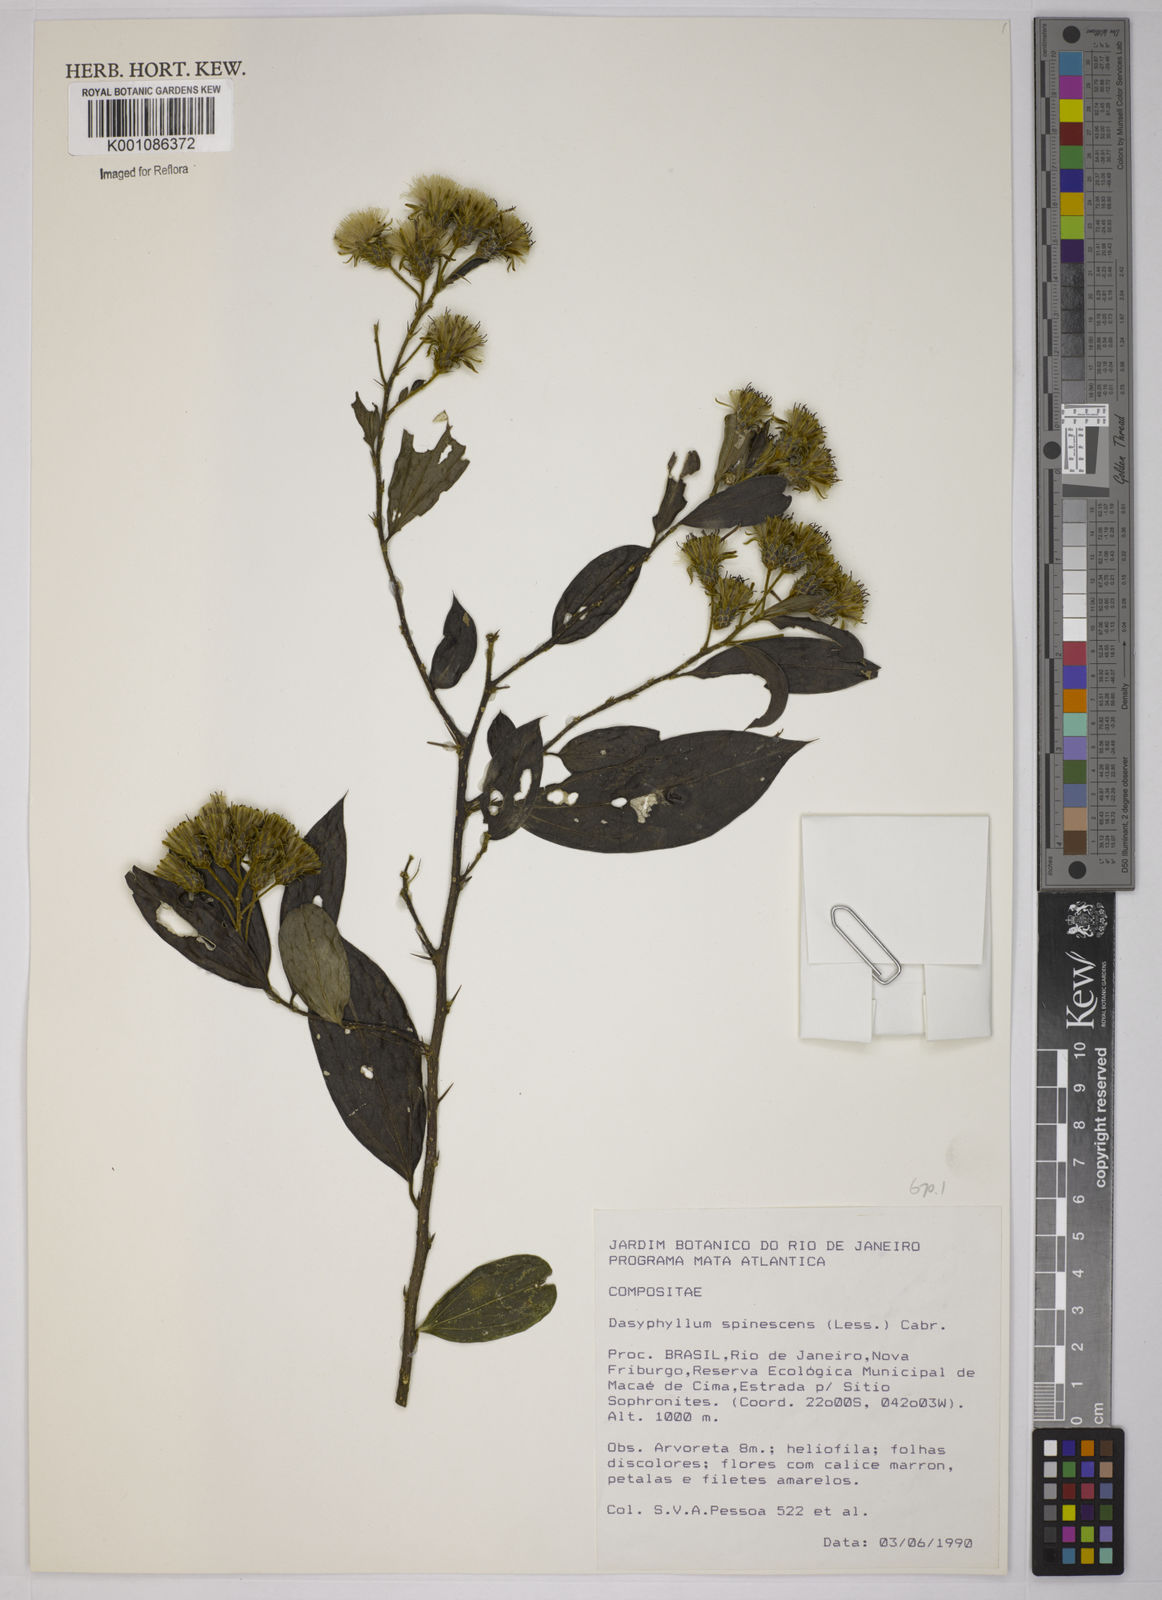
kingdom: Plantae
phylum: Tracheophyta
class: Magnoliopsida
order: Asterales
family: Asteraceae
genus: Dasyphyllum
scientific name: Dasyphyllum spinescens
